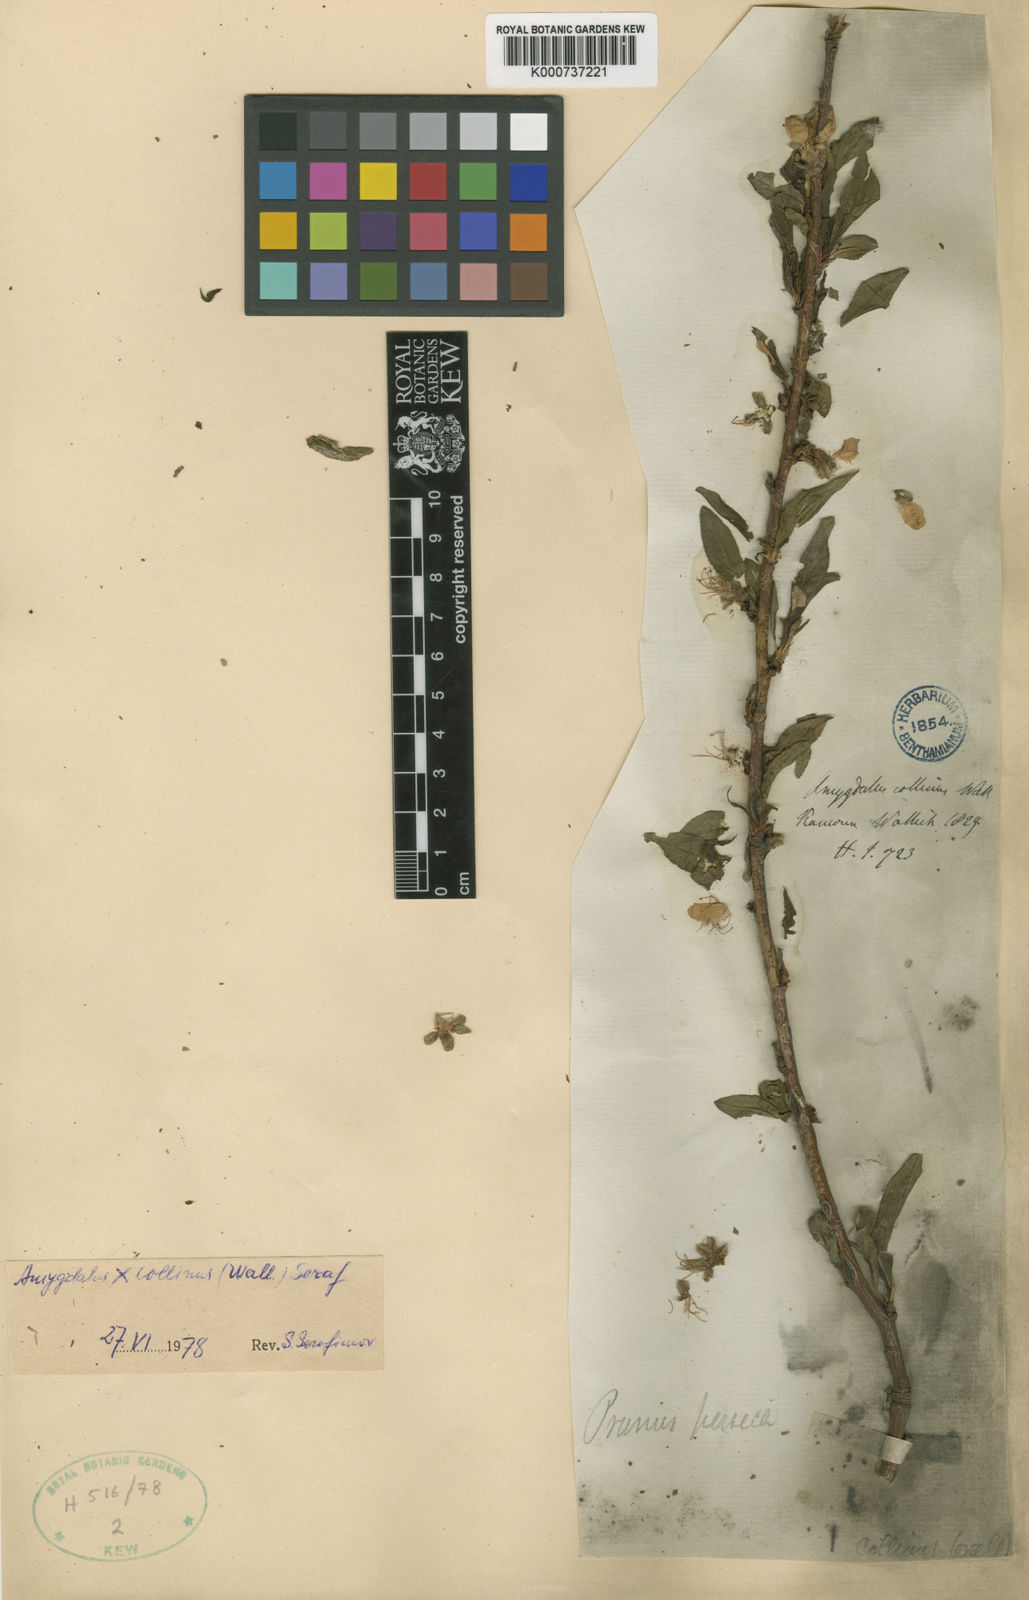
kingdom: Plantae
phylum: Tracheophyta
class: Magnoliopsida
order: Rosales
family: Rosaceae
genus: Prunus
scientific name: Prunus persica
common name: Peach
